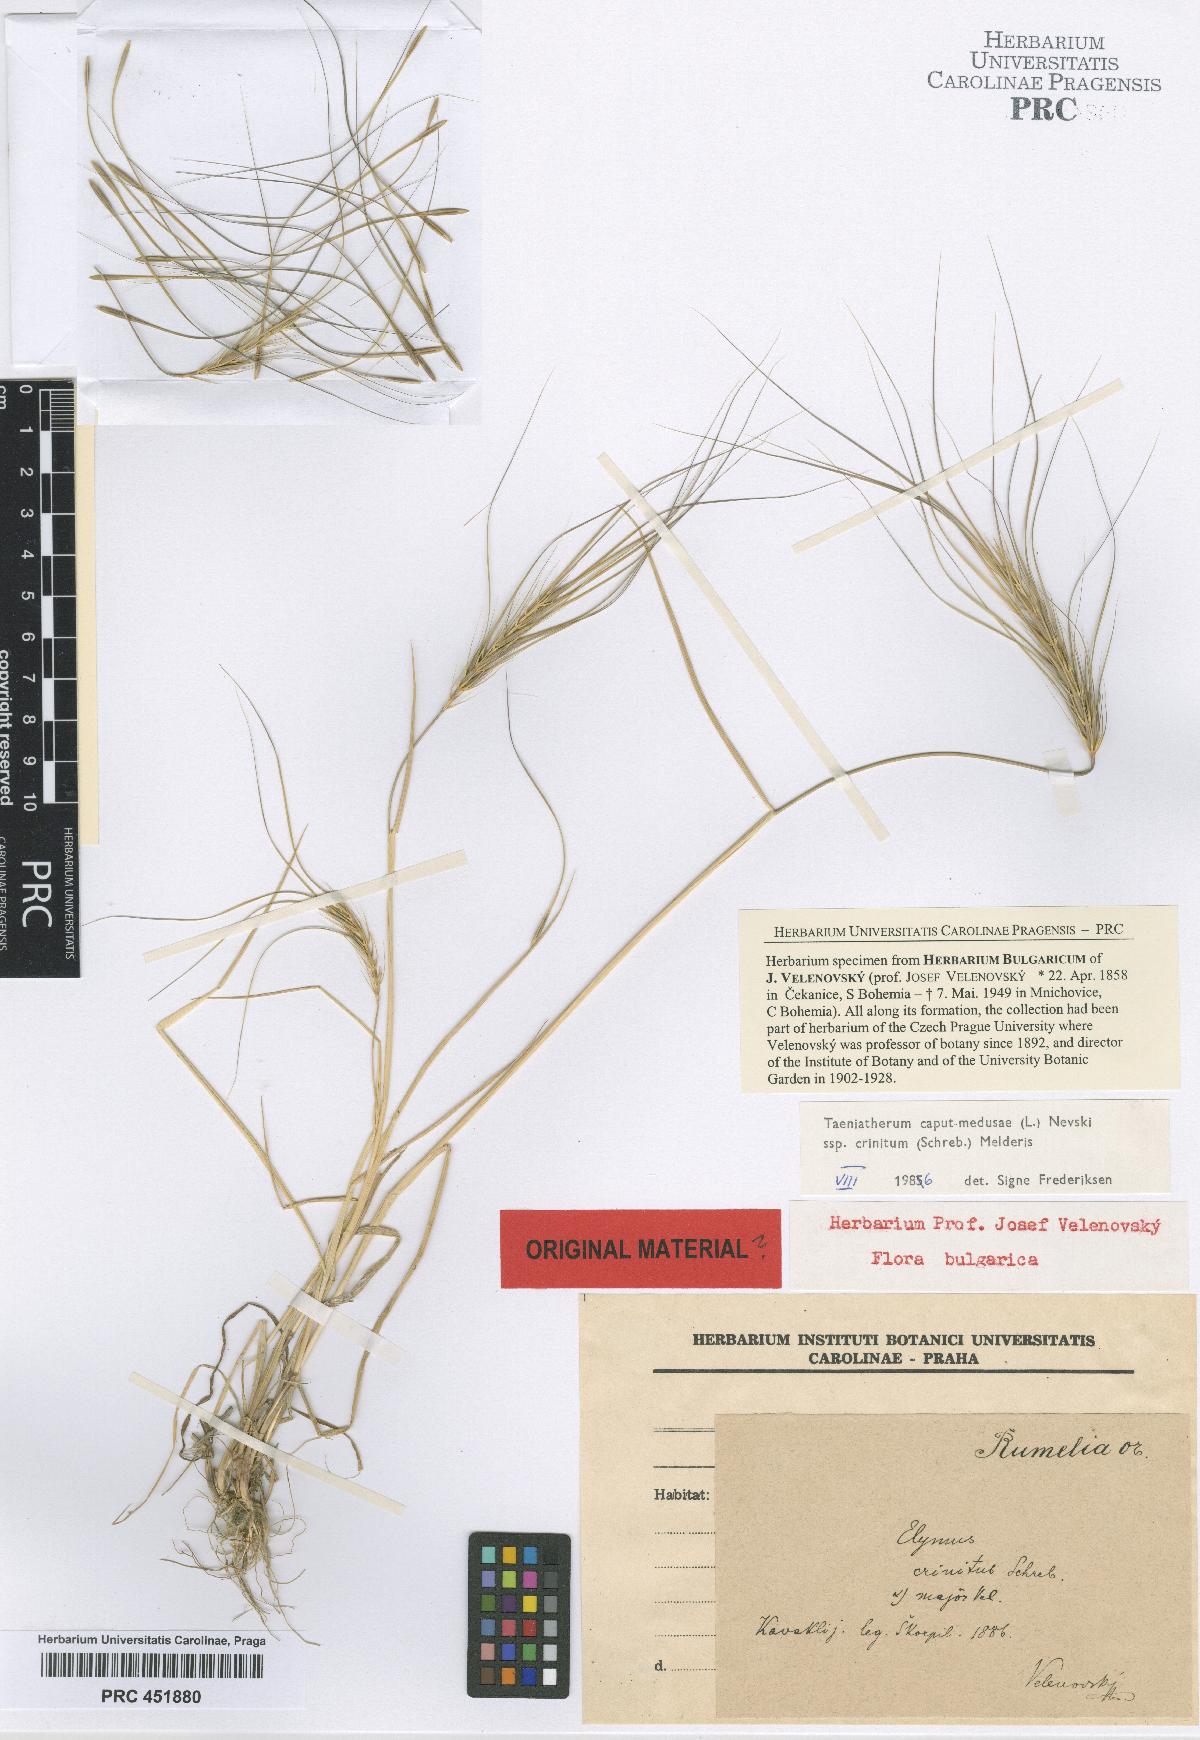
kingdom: Plantae
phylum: Tracheophyta
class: Liliopsida
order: Poales
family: Poaceae
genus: Taeniatherum
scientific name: Taeniatherum caput-medusae
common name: Medusahead
